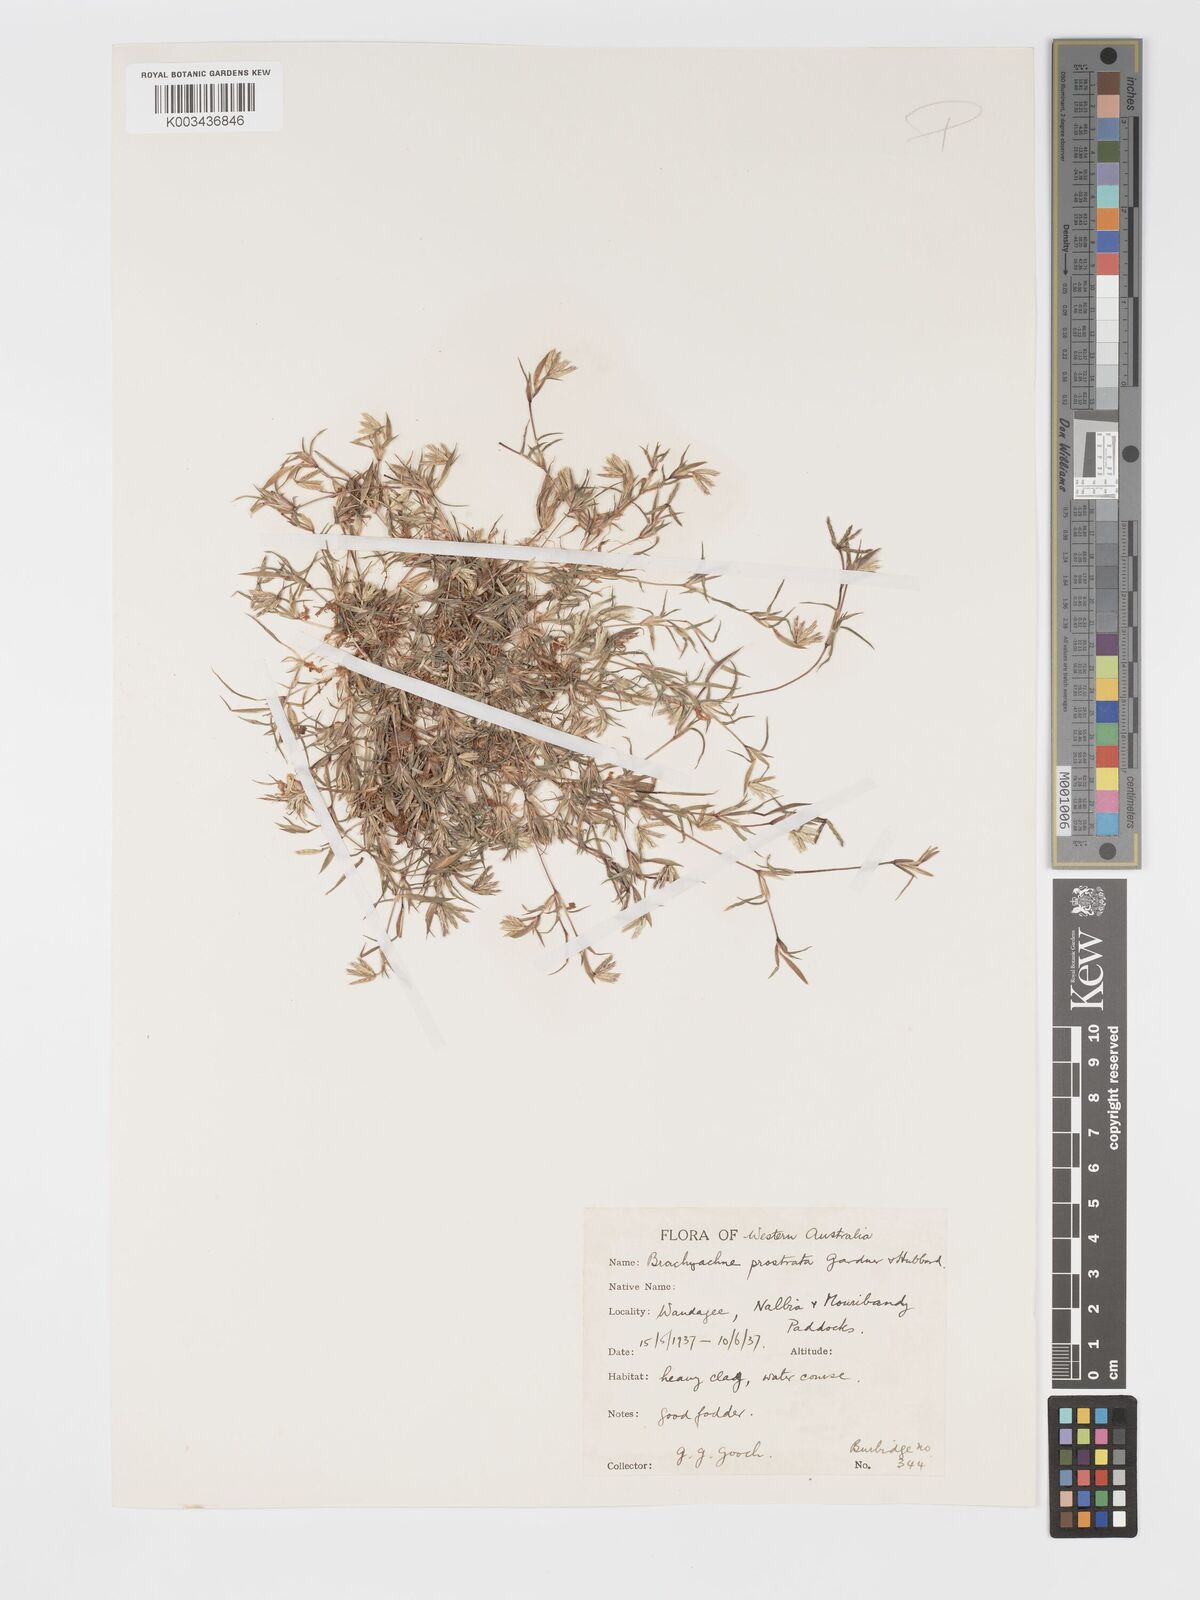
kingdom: Plantae
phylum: Tracheophyta
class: Liliopsida
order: Poales
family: Poaceae
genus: Cynodon
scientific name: Cynodon prostratus
